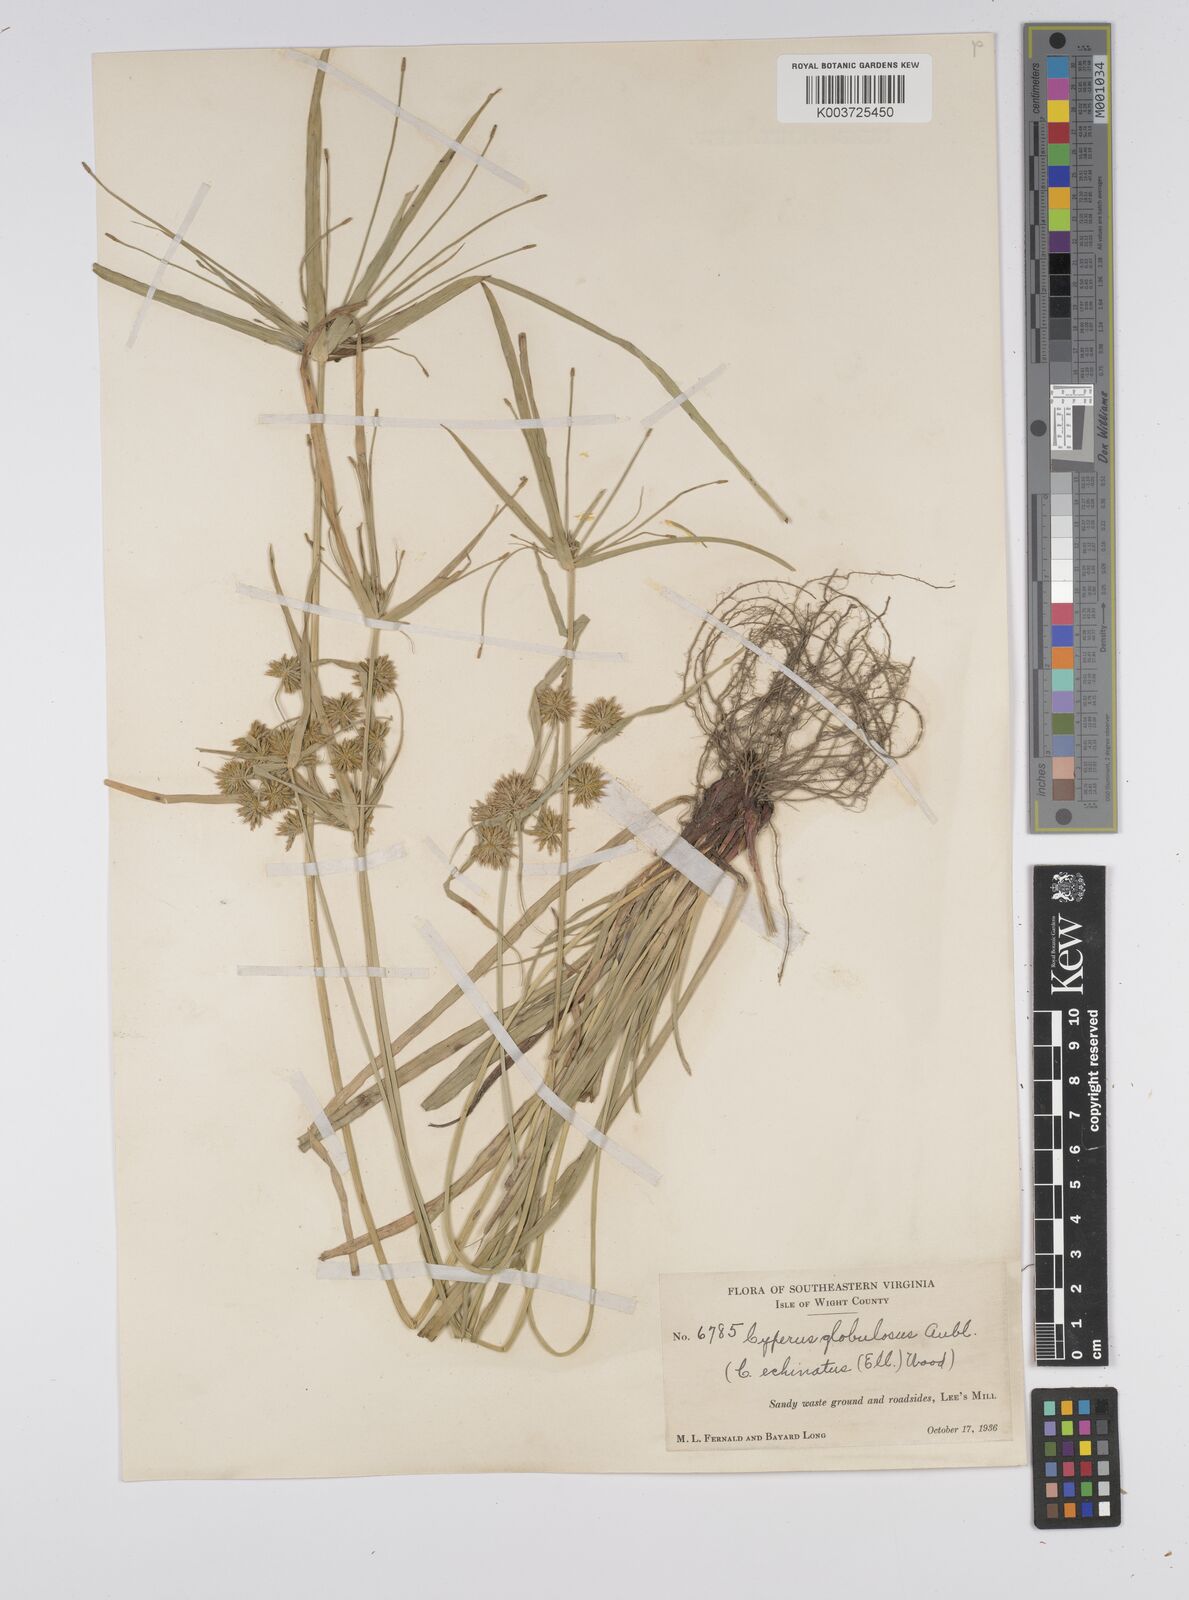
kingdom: Plantae
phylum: Tracheophyta
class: Liliopsida
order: Poales
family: Cyperaceae
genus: Cyperus
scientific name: Cyperus luzulae
